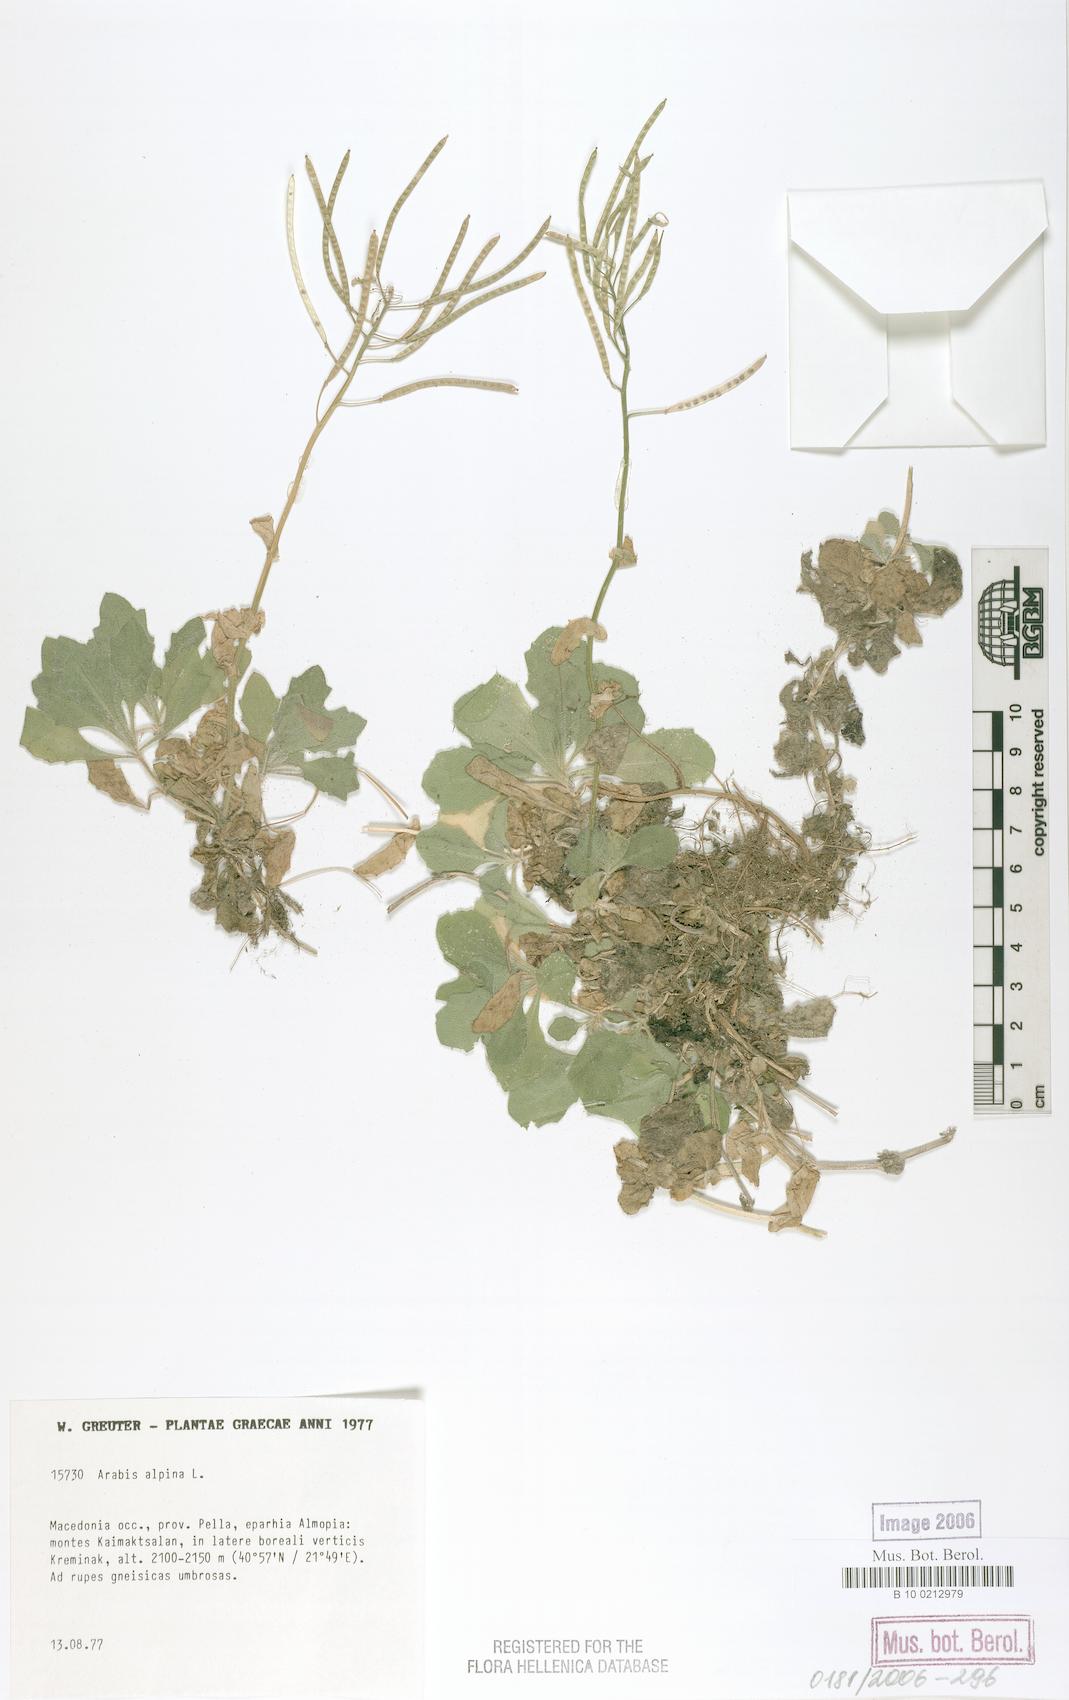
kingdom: Plantae
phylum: Tracheophyta
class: Magnoliopsida
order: Brassicales
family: Brassicaceae
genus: Arabis
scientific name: Arabis alpina
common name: Alpine rock-cress
